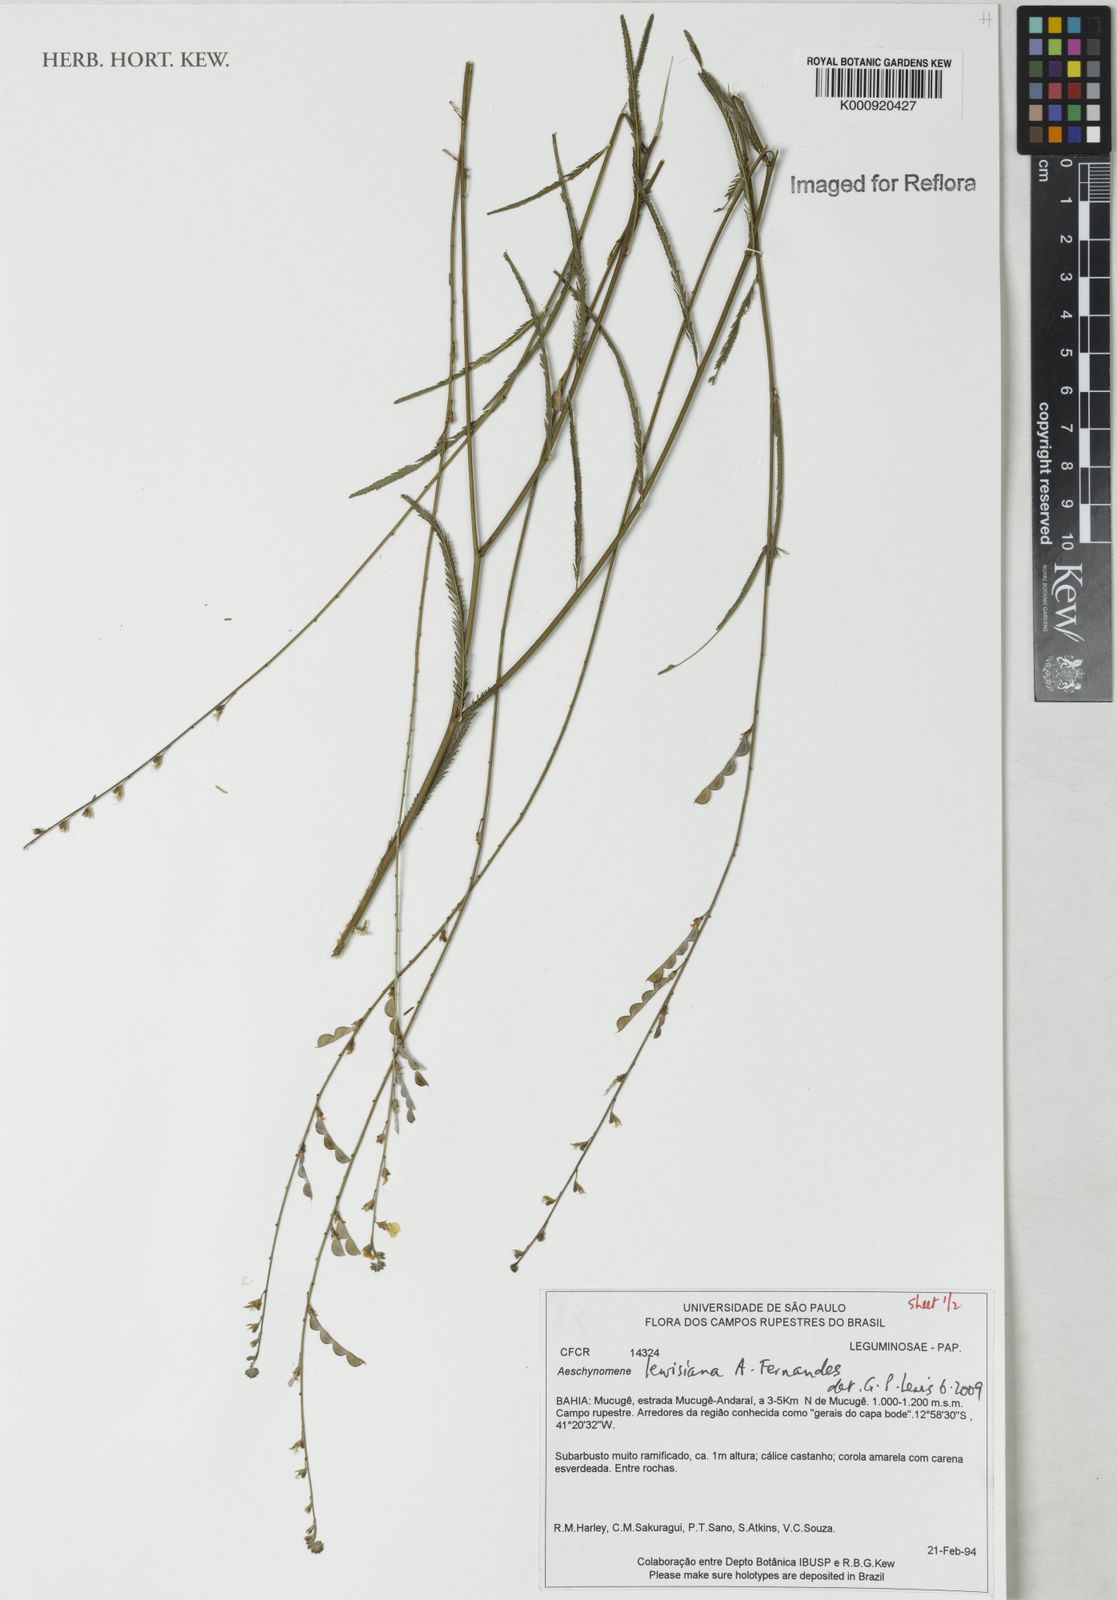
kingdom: Plantae
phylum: Tracheophyta
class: Magnoliopsida
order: Fabales
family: Fabaceae
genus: Ctenodon
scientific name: Ctenodon lewisianus
